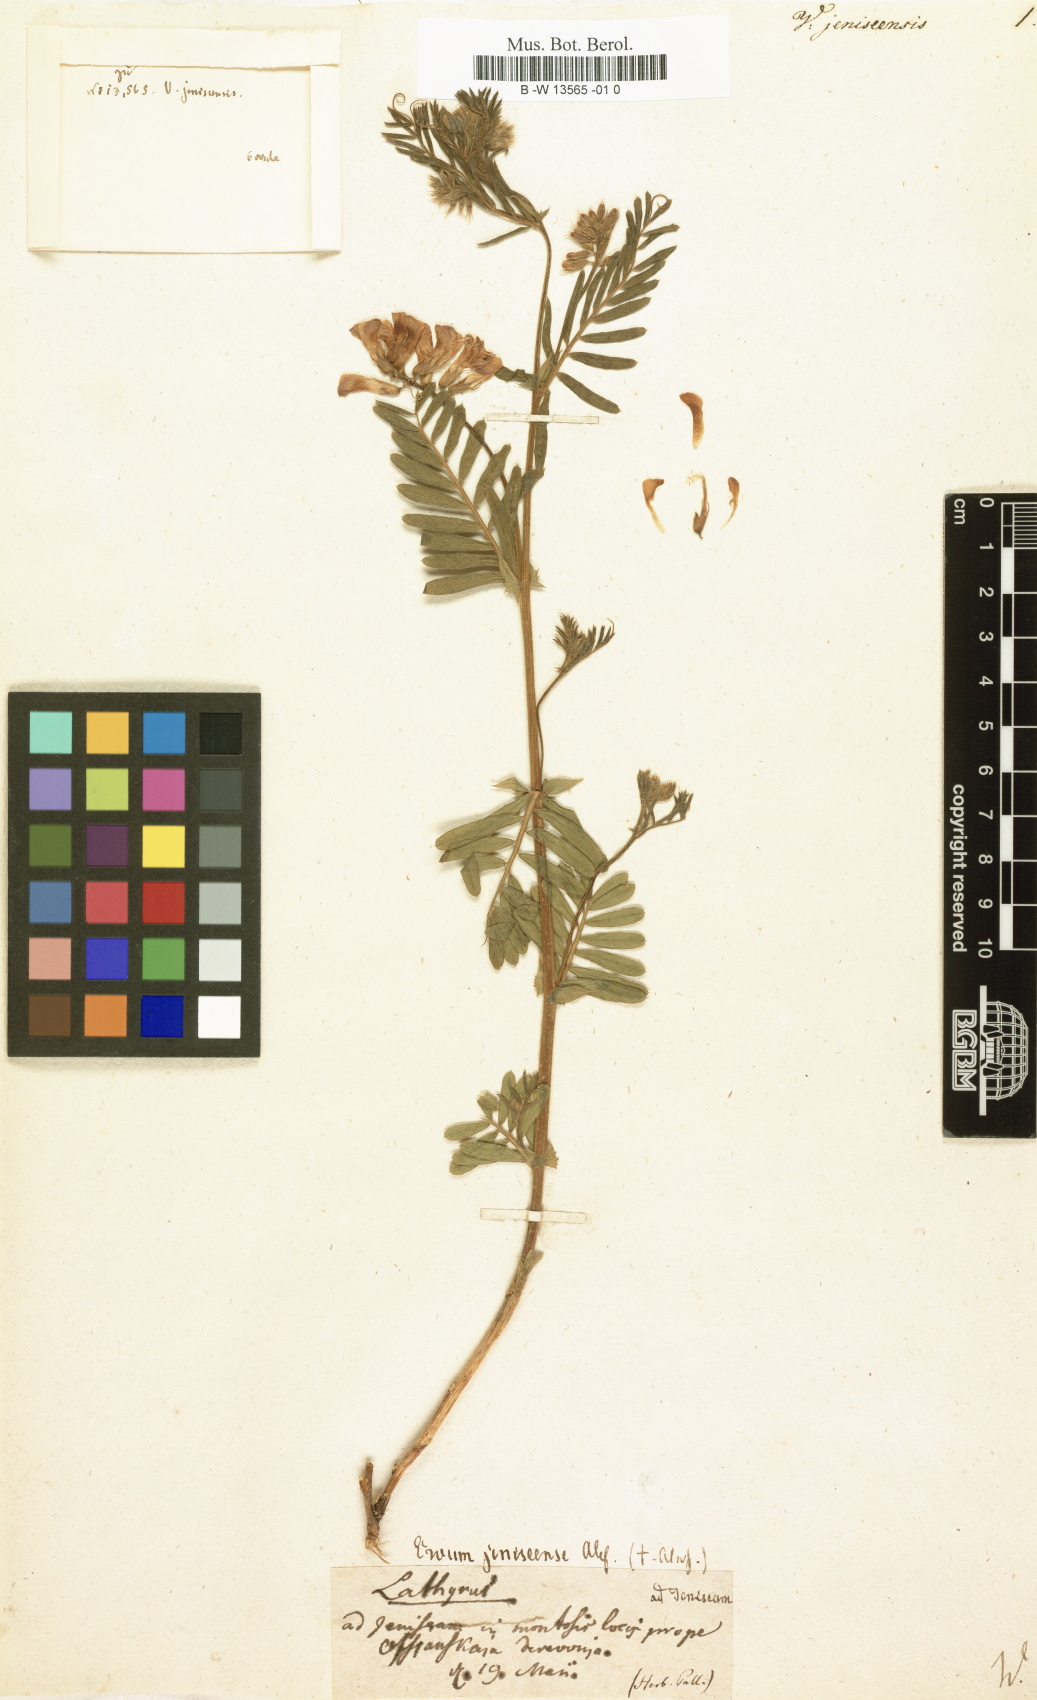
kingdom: Plantae
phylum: Tracheophyta
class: Magnoliopsida
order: Fabales
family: Fabaceae
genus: Vicia
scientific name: Vicia amoena
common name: Cheder ebs
